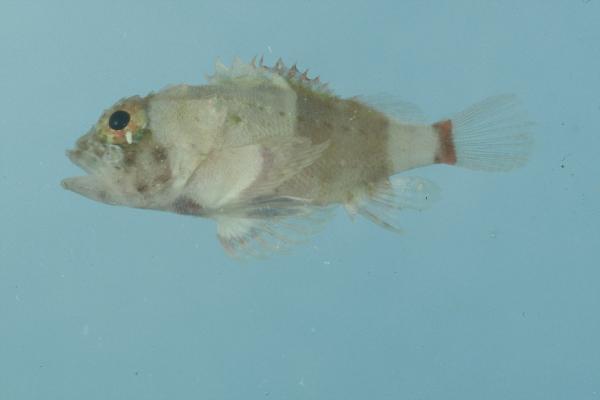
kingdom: Animalia
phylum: Chordata
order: Scorpaeniformes
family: Scorpaenidae
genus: Scorpaenodes
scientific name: Scorpaenodes parvipinnis
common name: Coral scorpionfish
